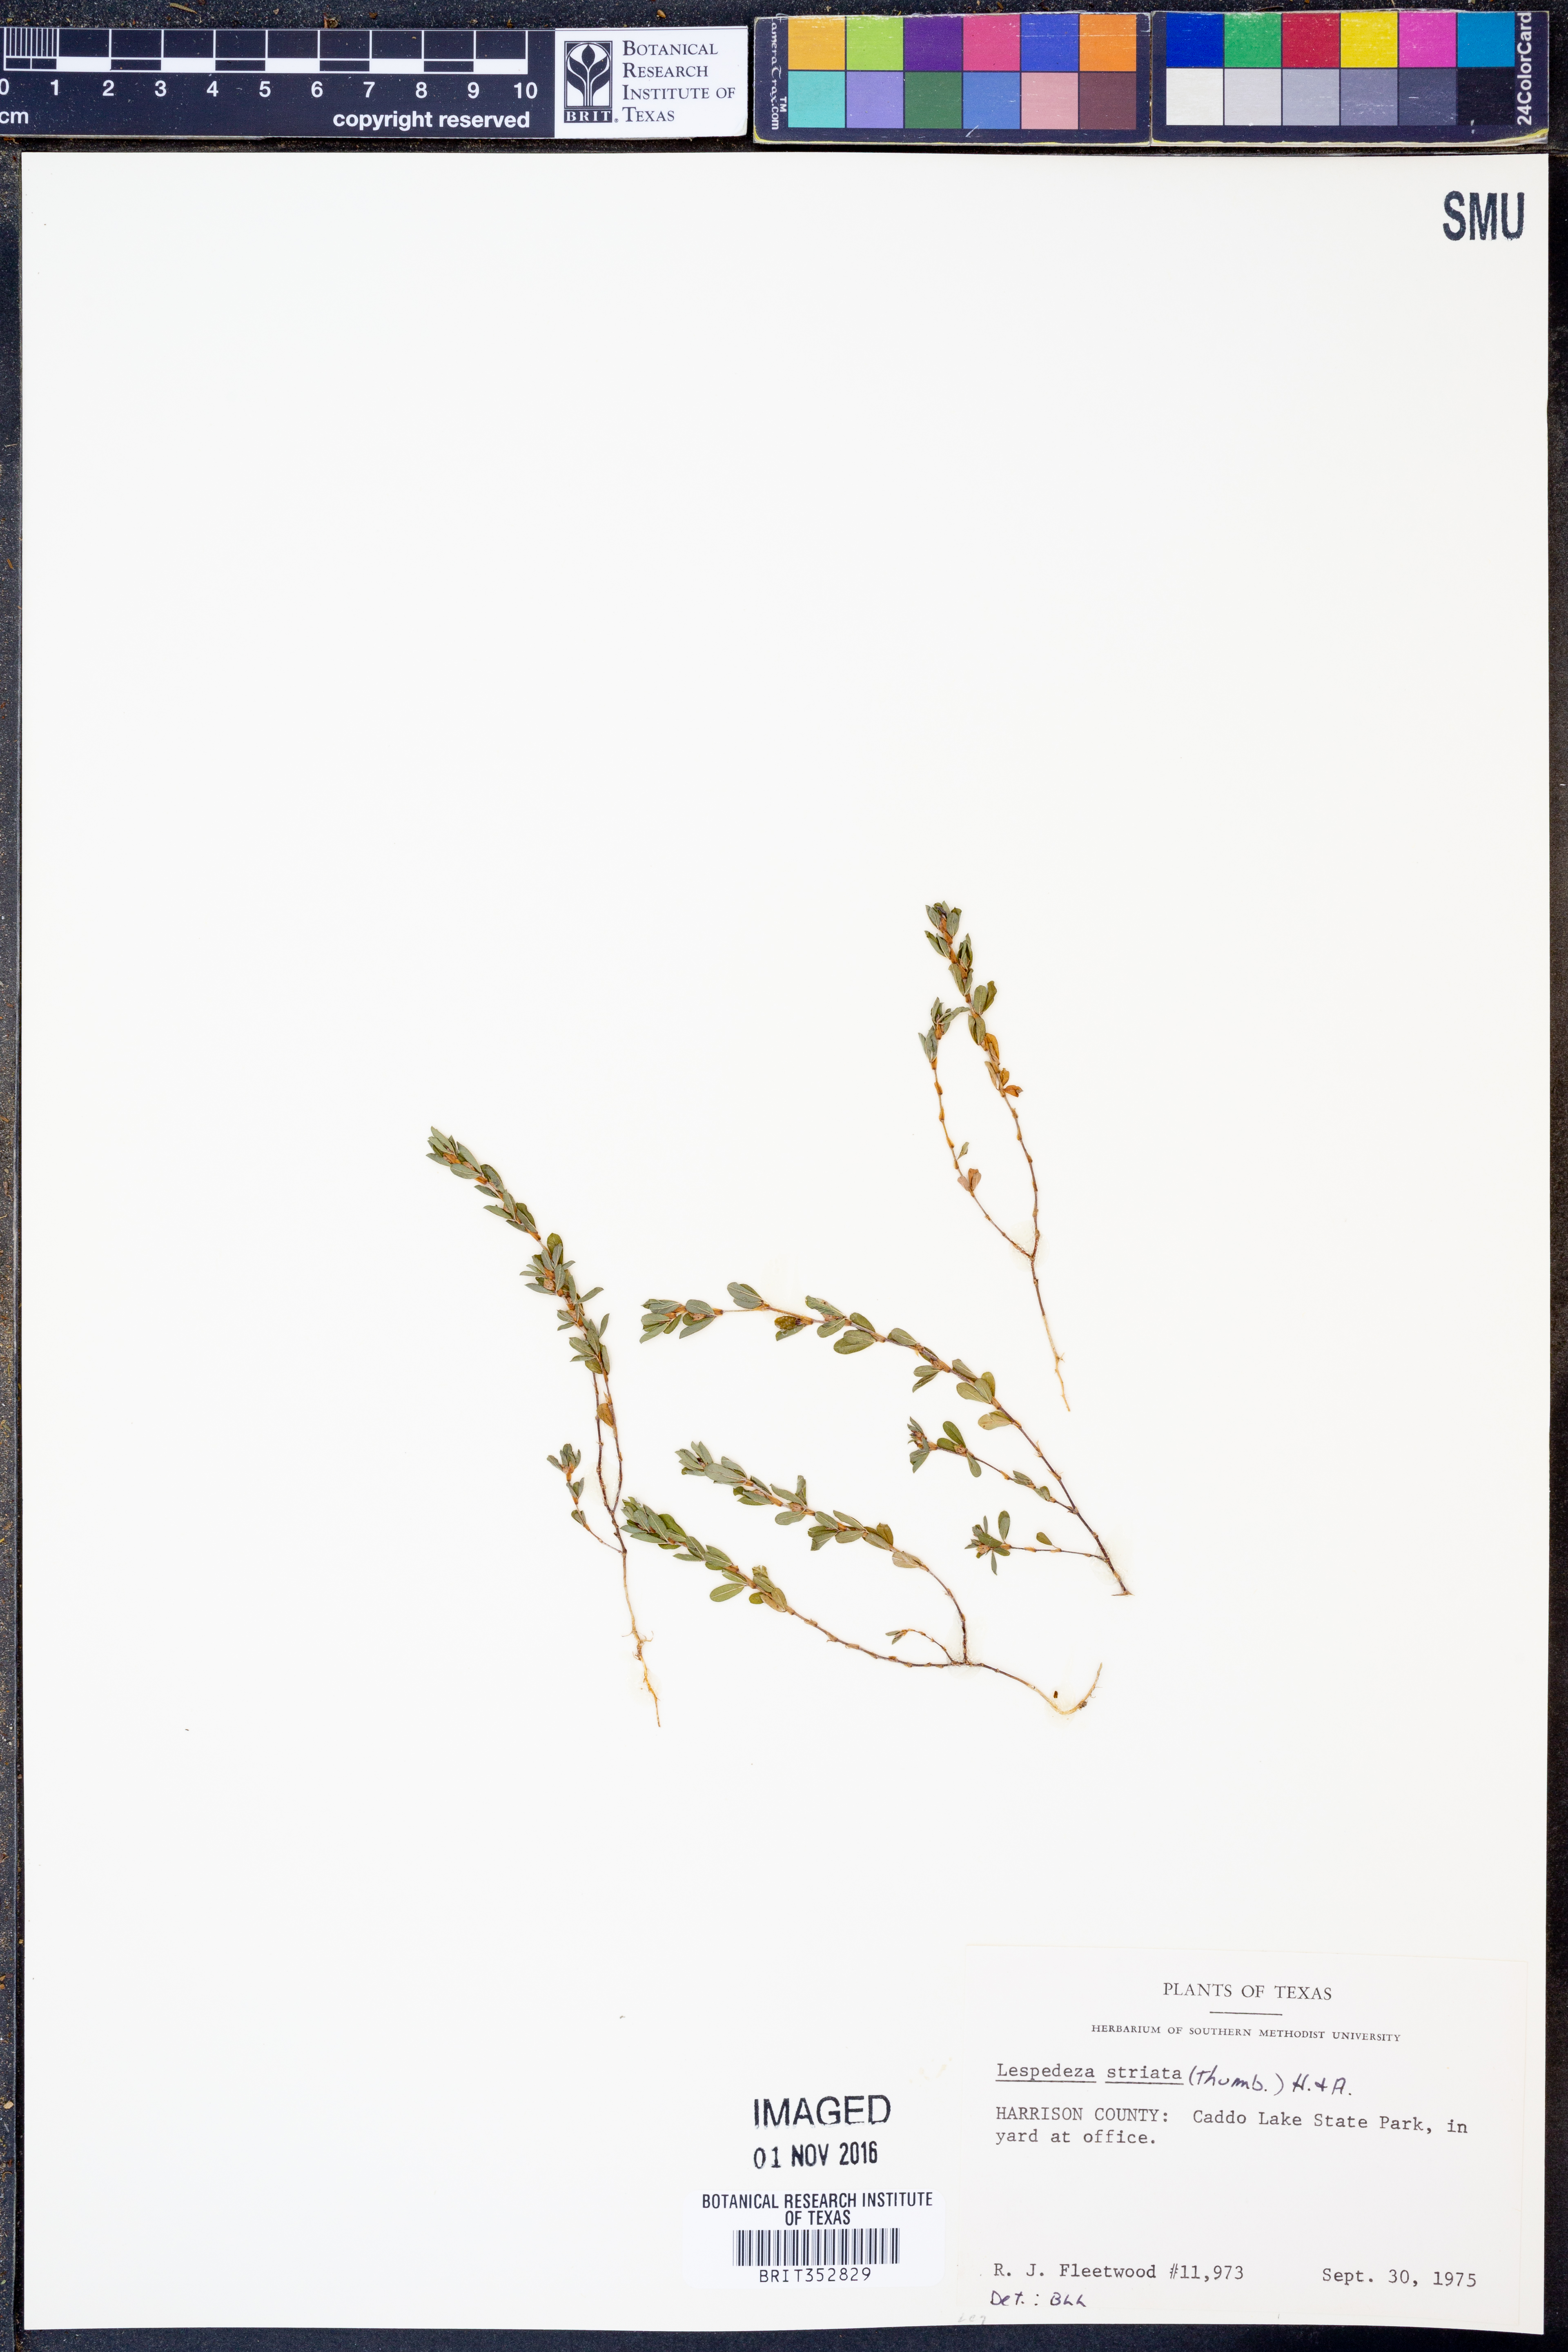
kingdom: Plantae
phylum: Tracheophyta
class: Magnoliopsida
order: Fabales
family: Fabaceae
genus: Kummerowia
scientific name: Kummerowia striata
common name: Japanese clover
